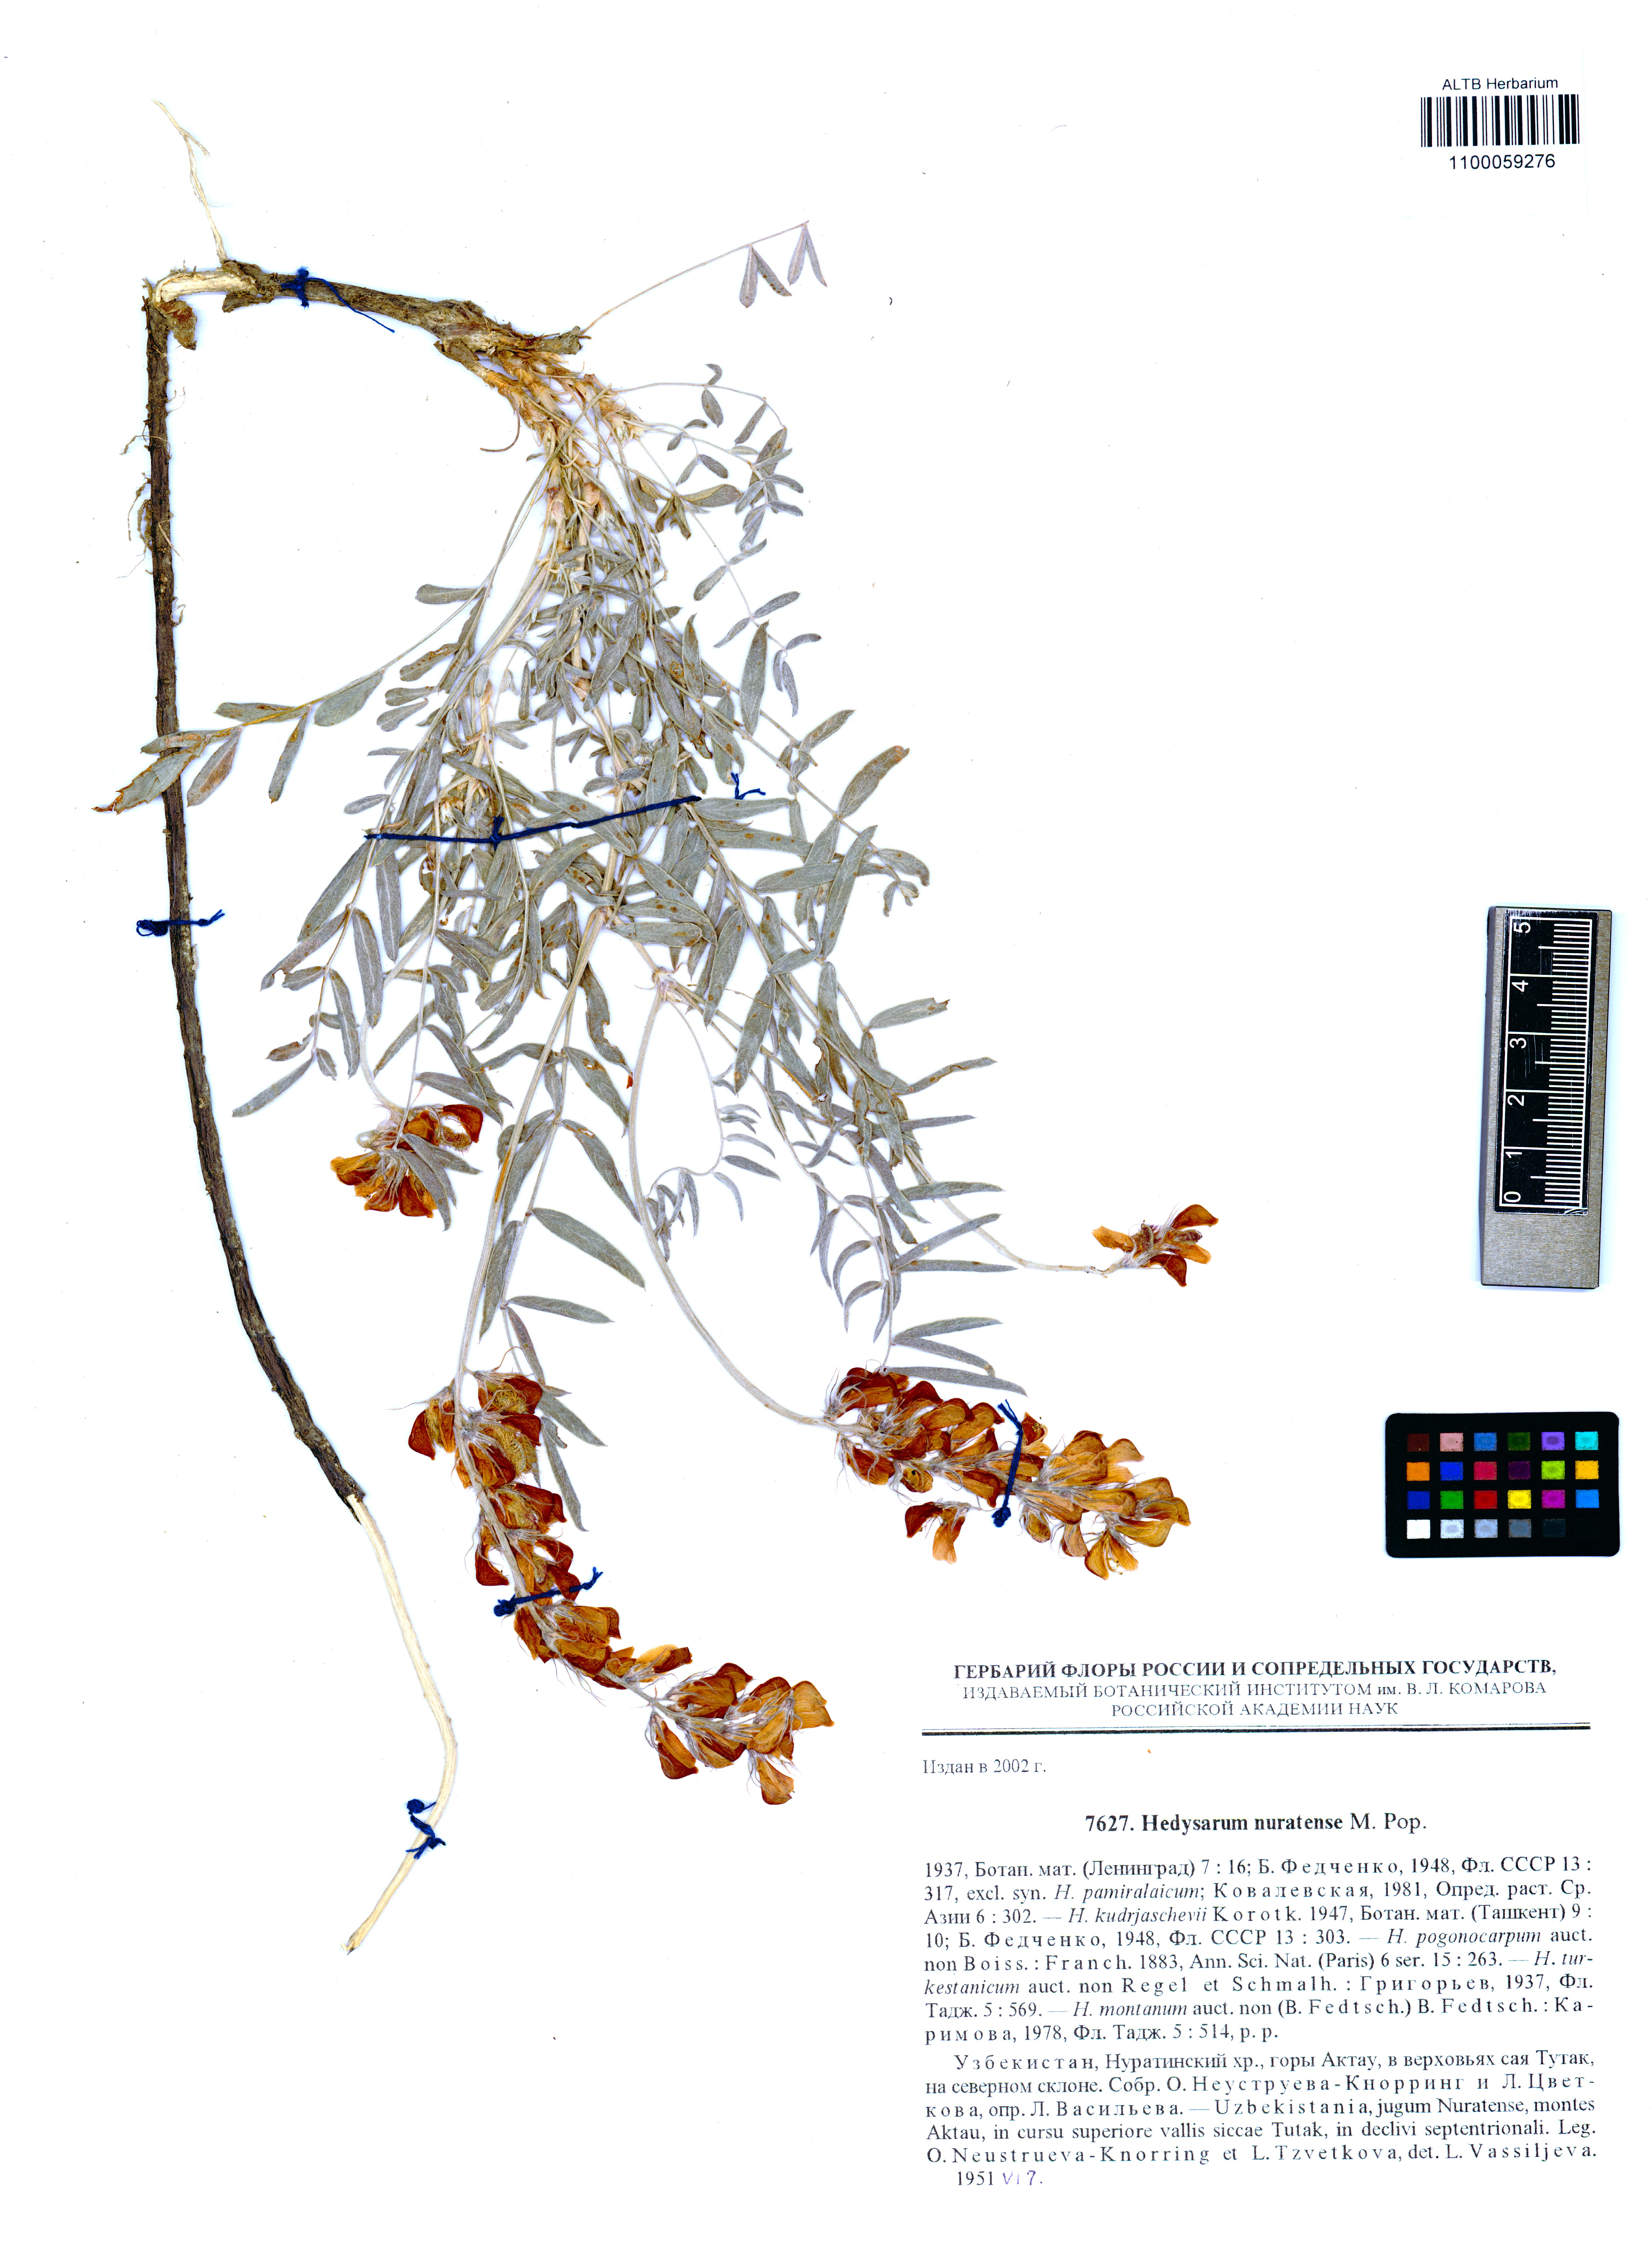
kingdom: Plantae
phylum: Tracheophyta
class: Magnoliopsida
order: Fabales
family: Fabaceae
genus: Hedysarum
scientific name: Hedysarum nuratense
